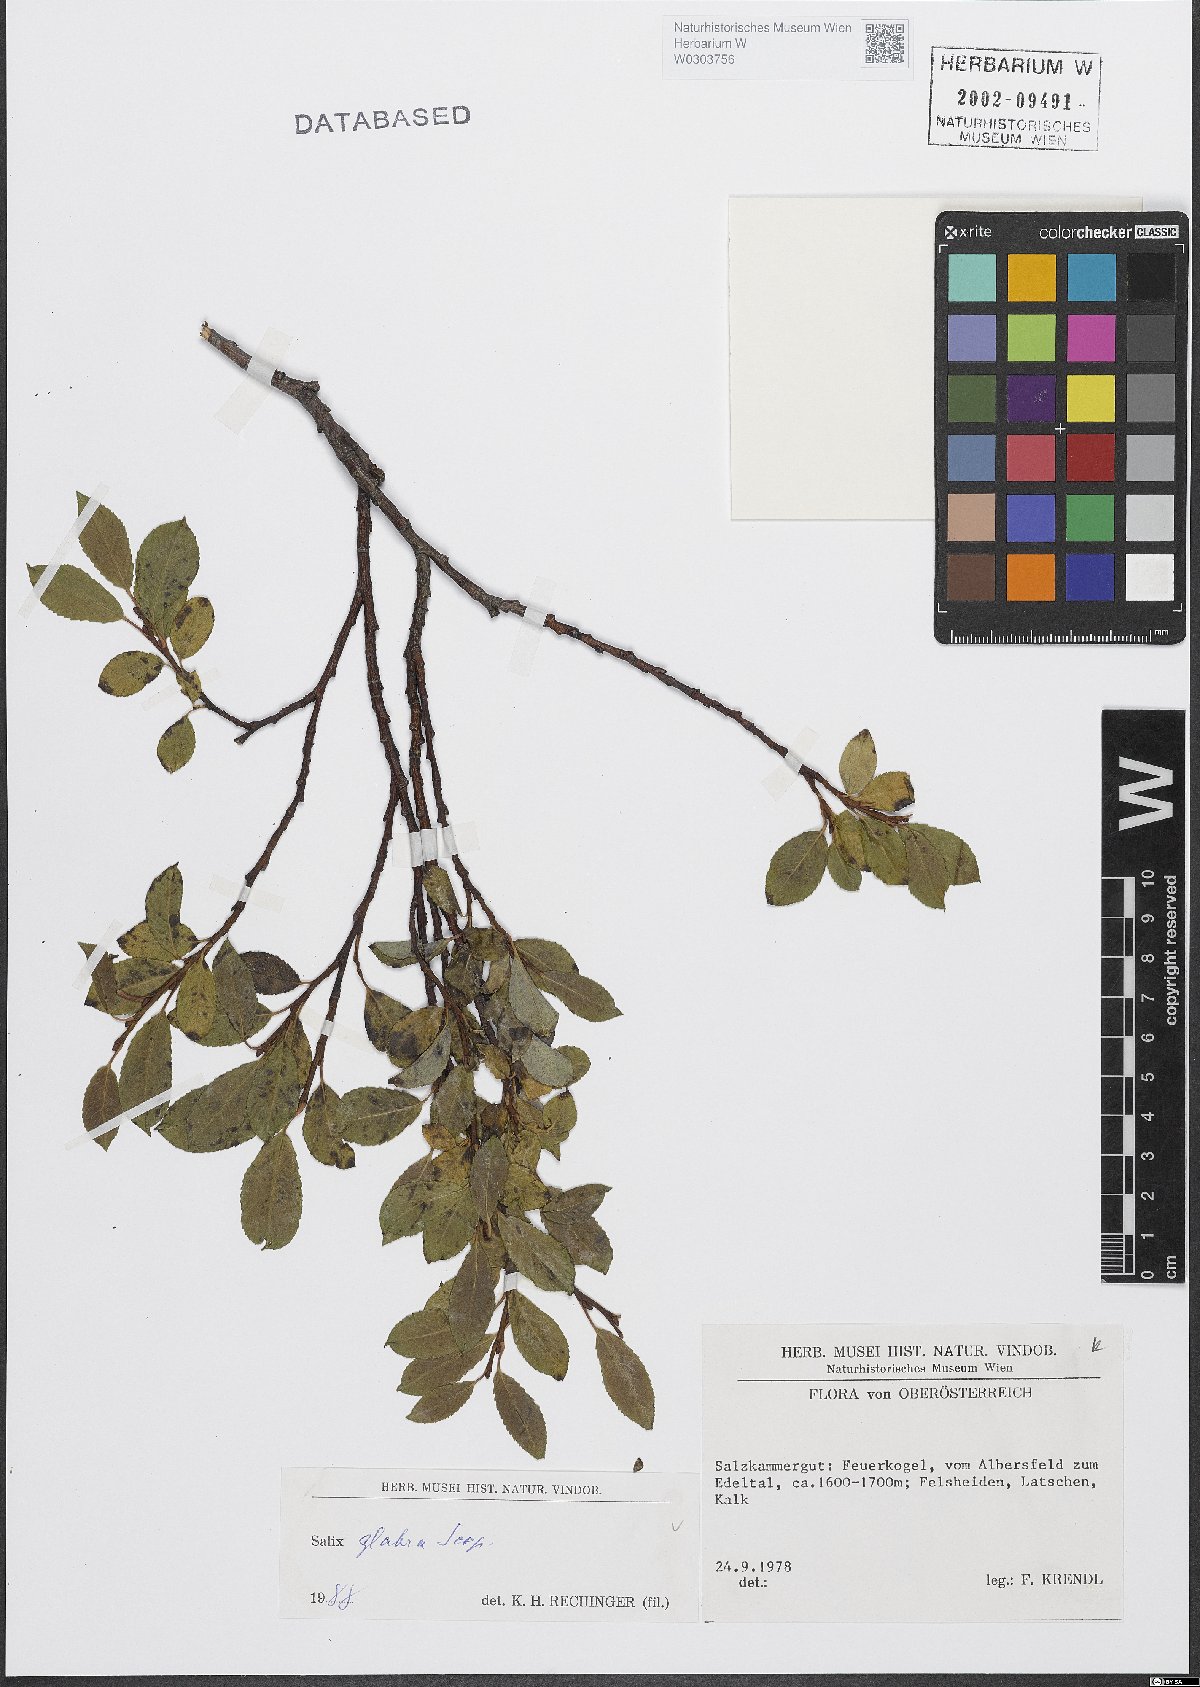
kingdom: Plantae
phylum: Tracheophyta
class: Magnoliopsida
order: Malpighiales
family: Salicaceae
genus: Salix
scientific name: Salix glabra
